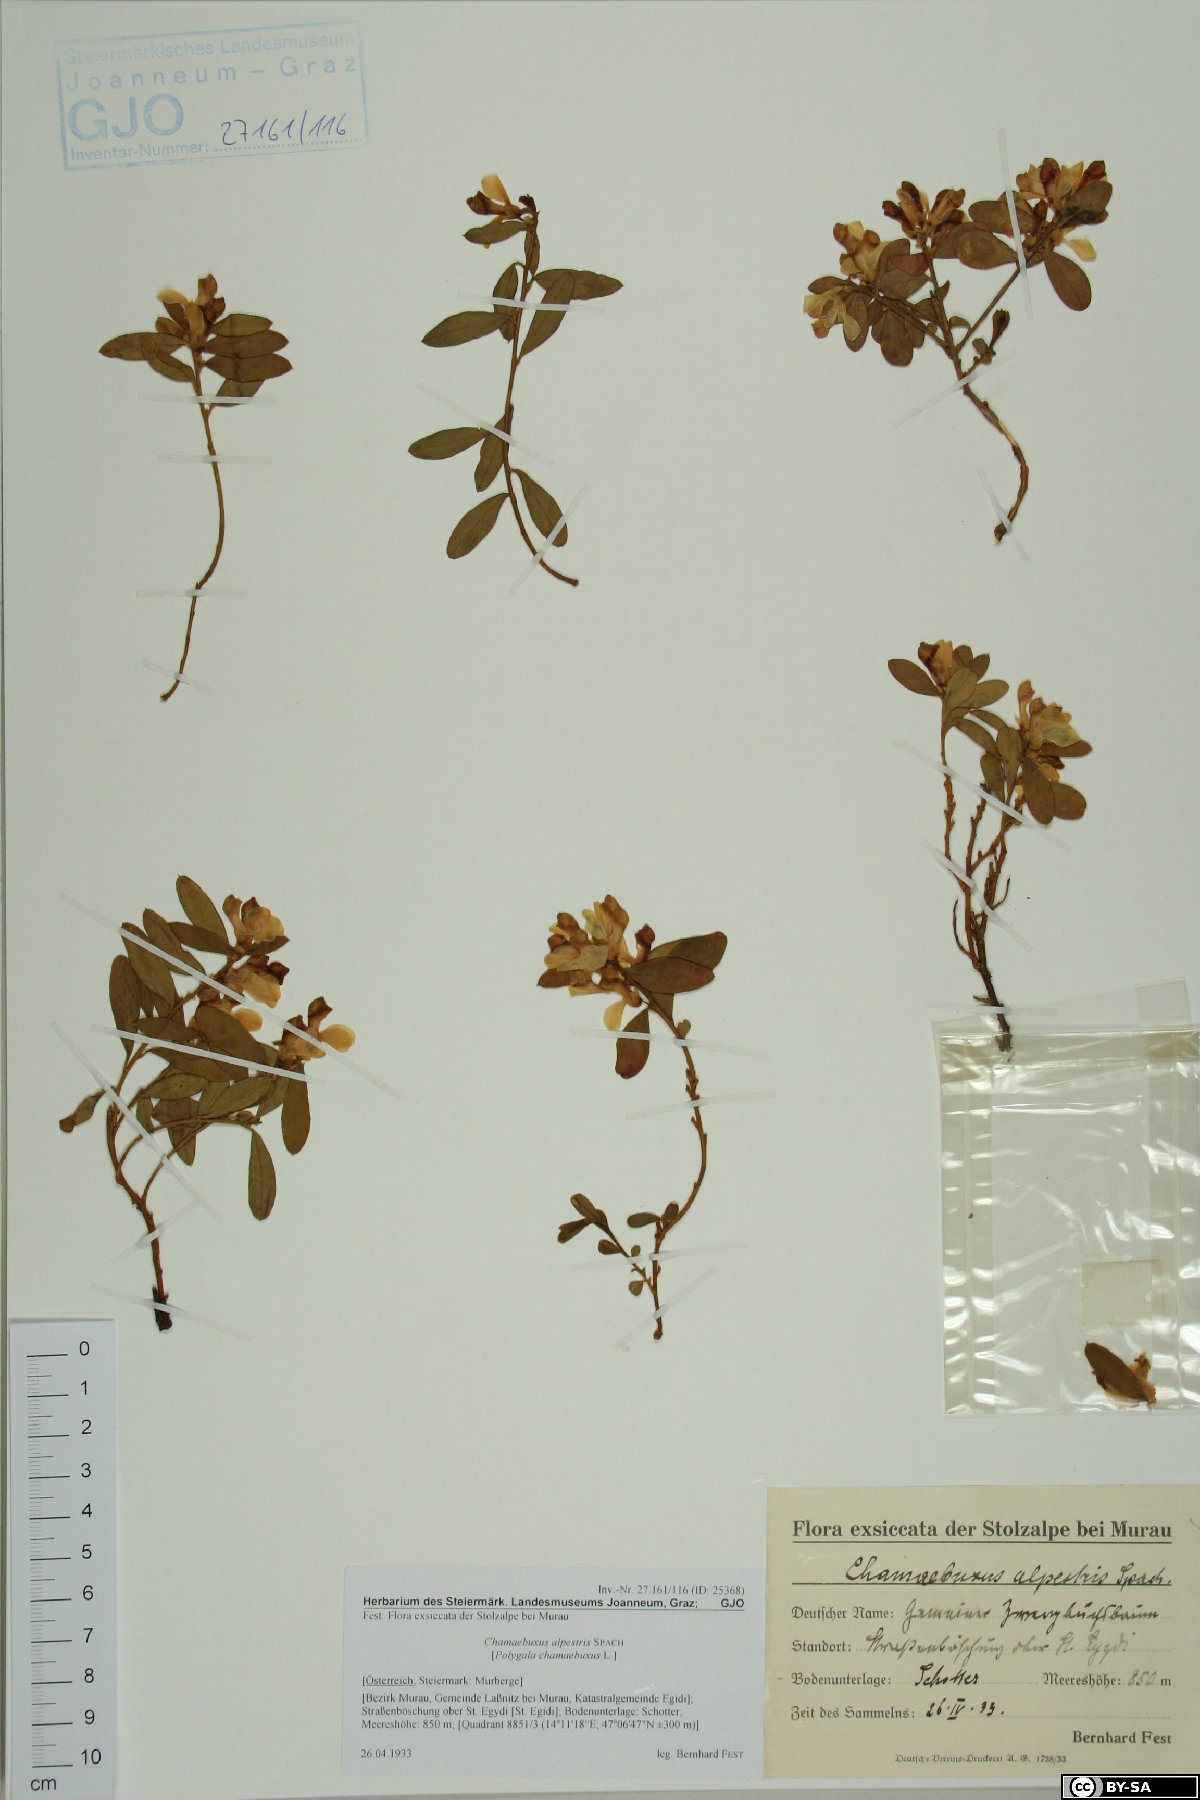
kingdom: Plantae
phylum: Tracheophyta
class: Magnoliopsida
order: Fabales
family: Polygalaceae
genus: Polygaloides
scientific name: Polygaloides chamaebuxus
